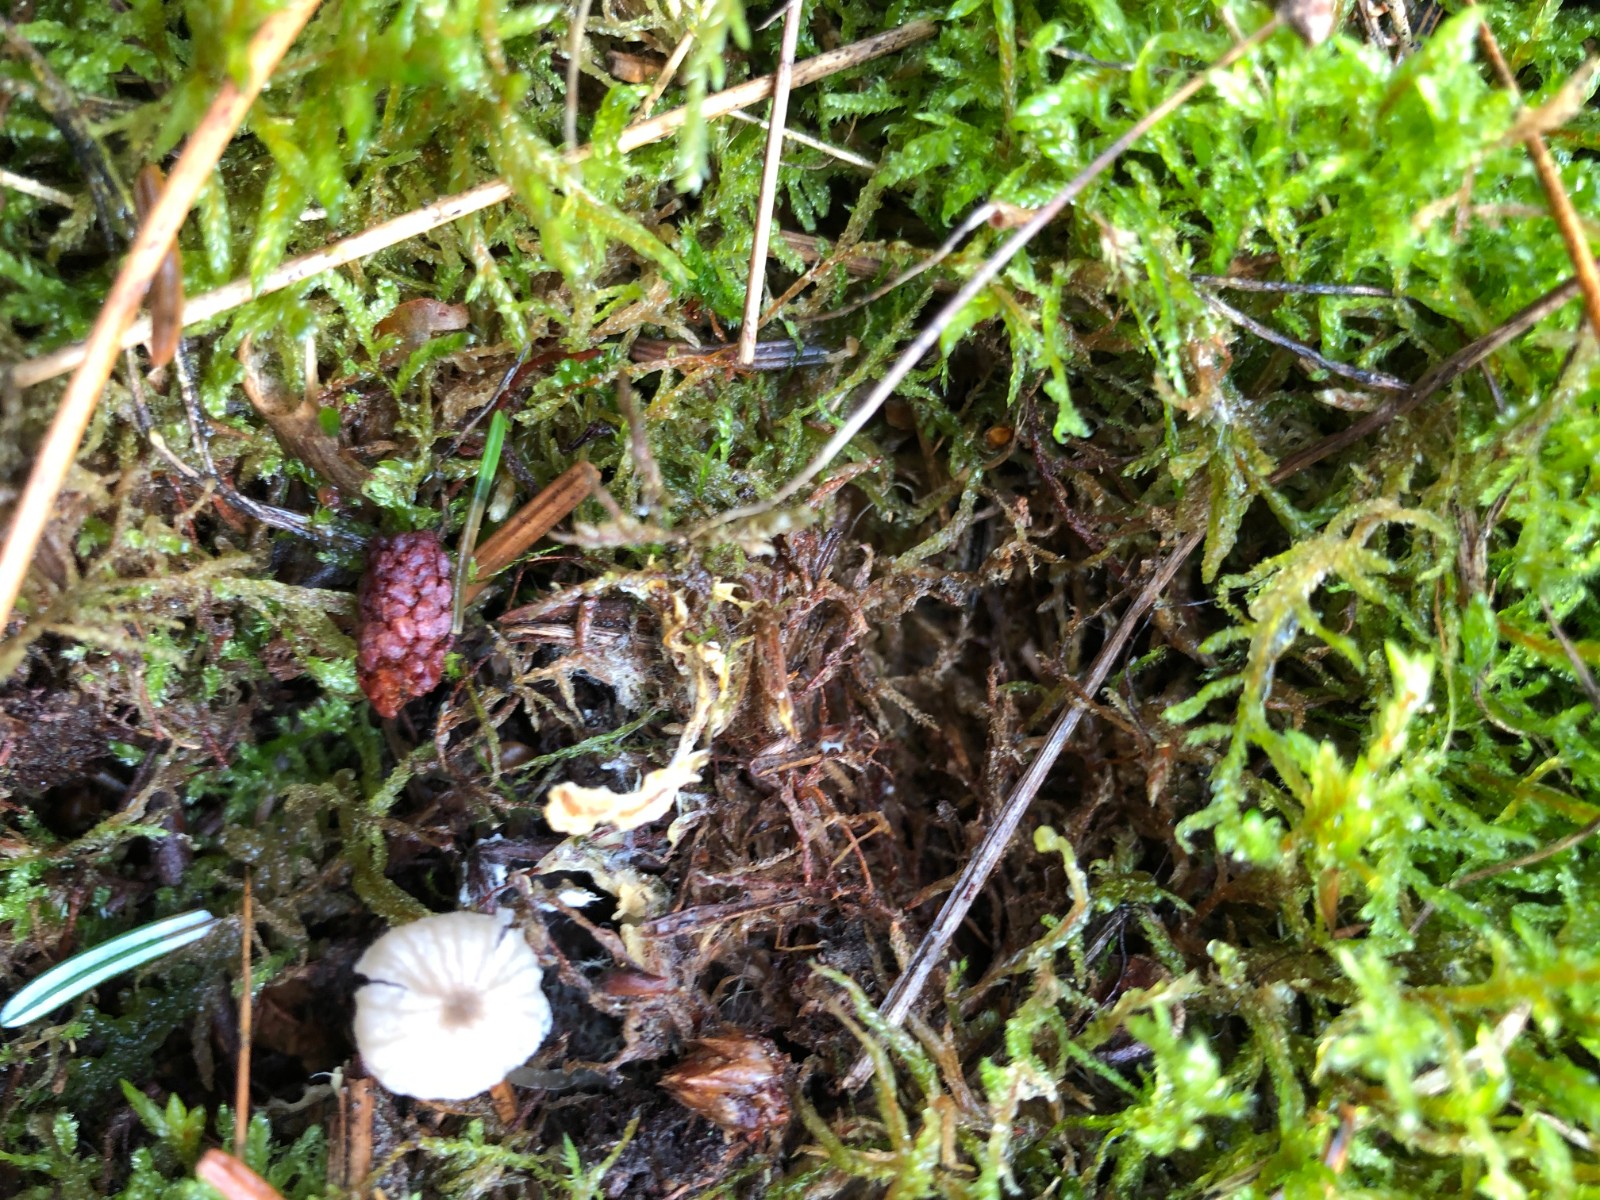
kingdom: Fungi
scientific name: Fungi
